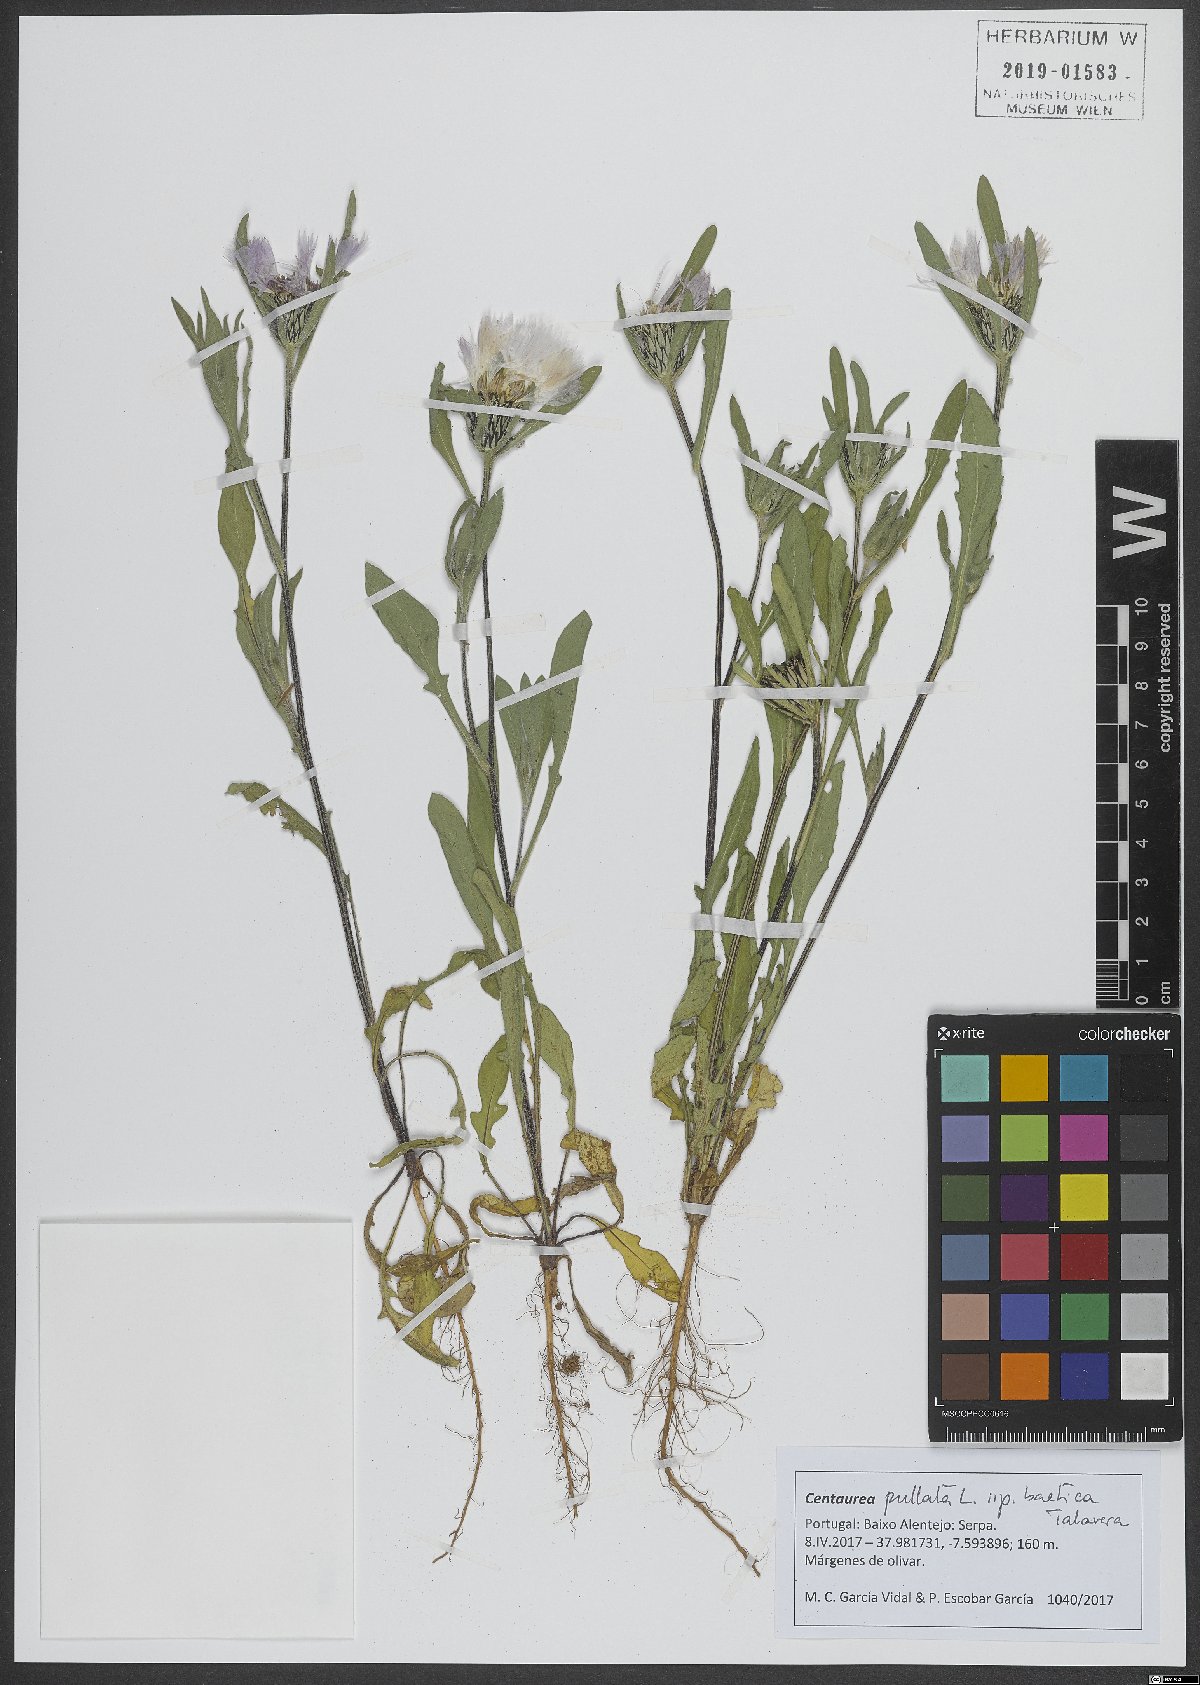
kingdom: Plantae
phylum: Tracheophyta
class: Magnoliopsida
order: Asterales
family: Asteraceae
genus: Centaurea
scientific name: Centaurea pullata
